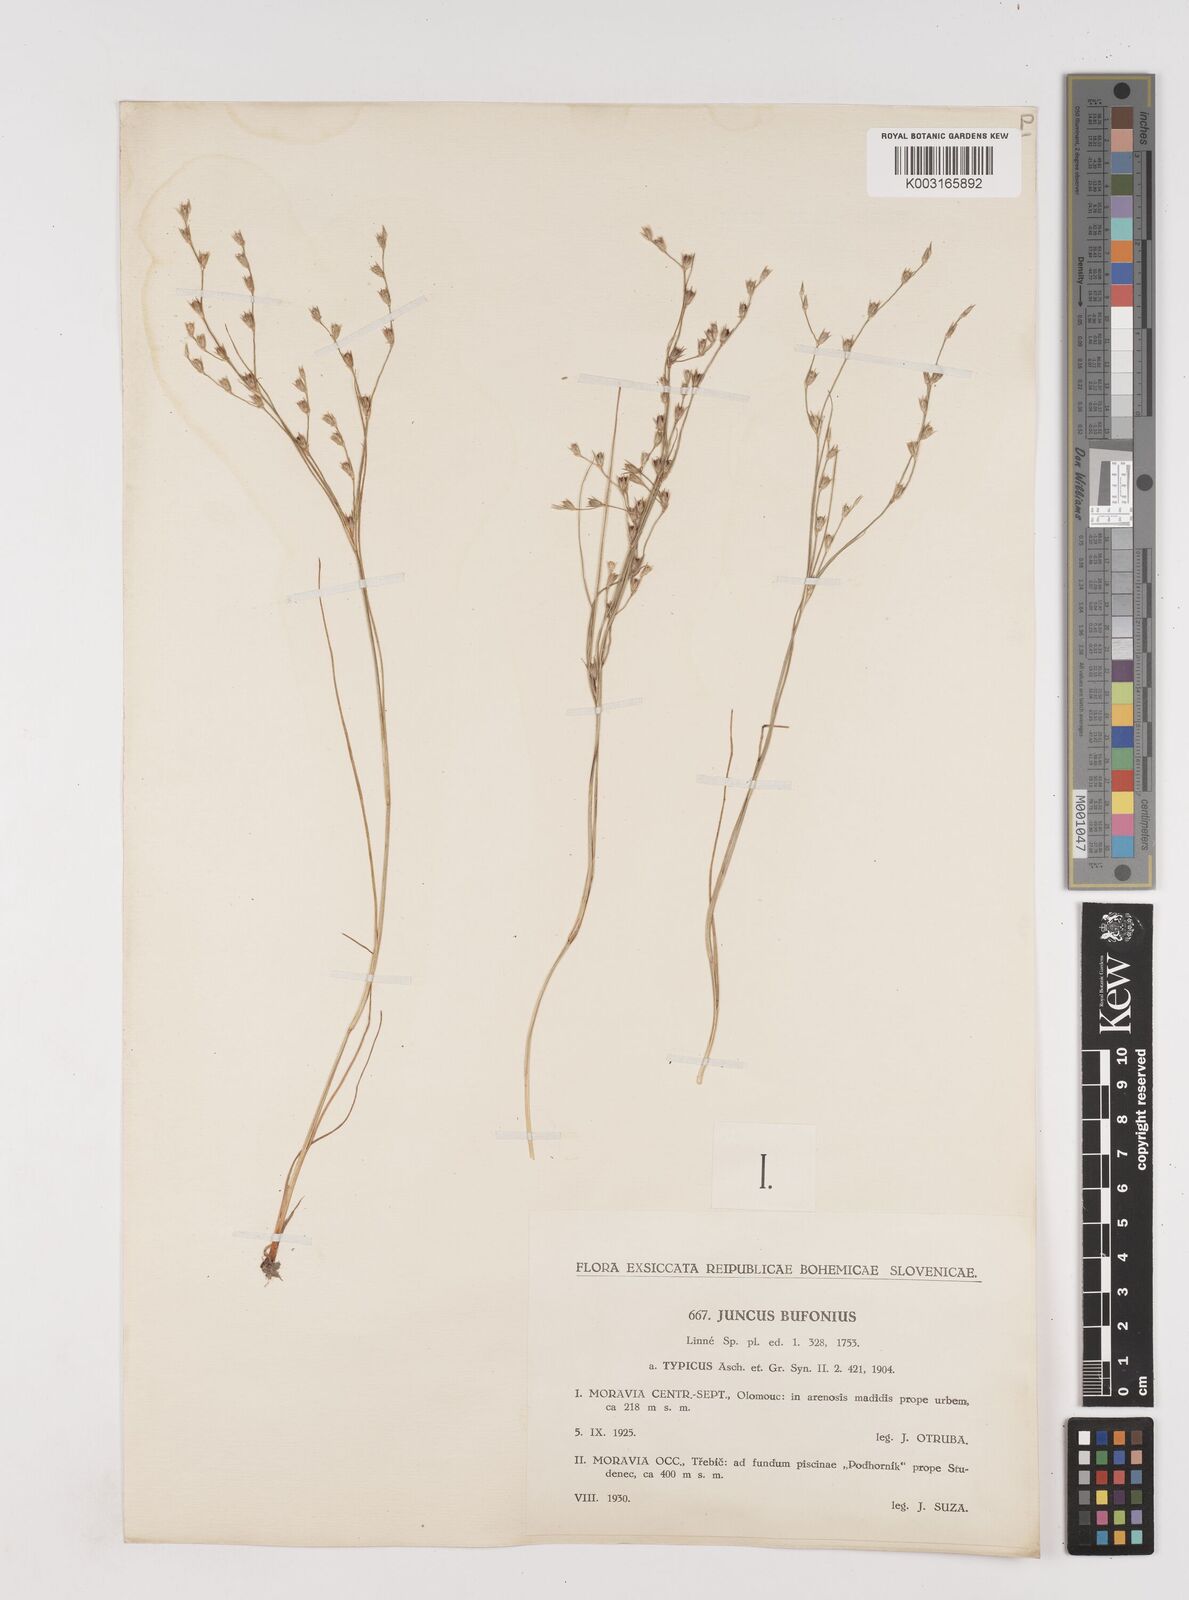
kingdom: Plantae
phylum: Tracheophyta
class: Liliopsida
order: Poales
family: Juncaceae
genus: Juncus
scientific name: Juncus bufonius
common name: Toad rush
